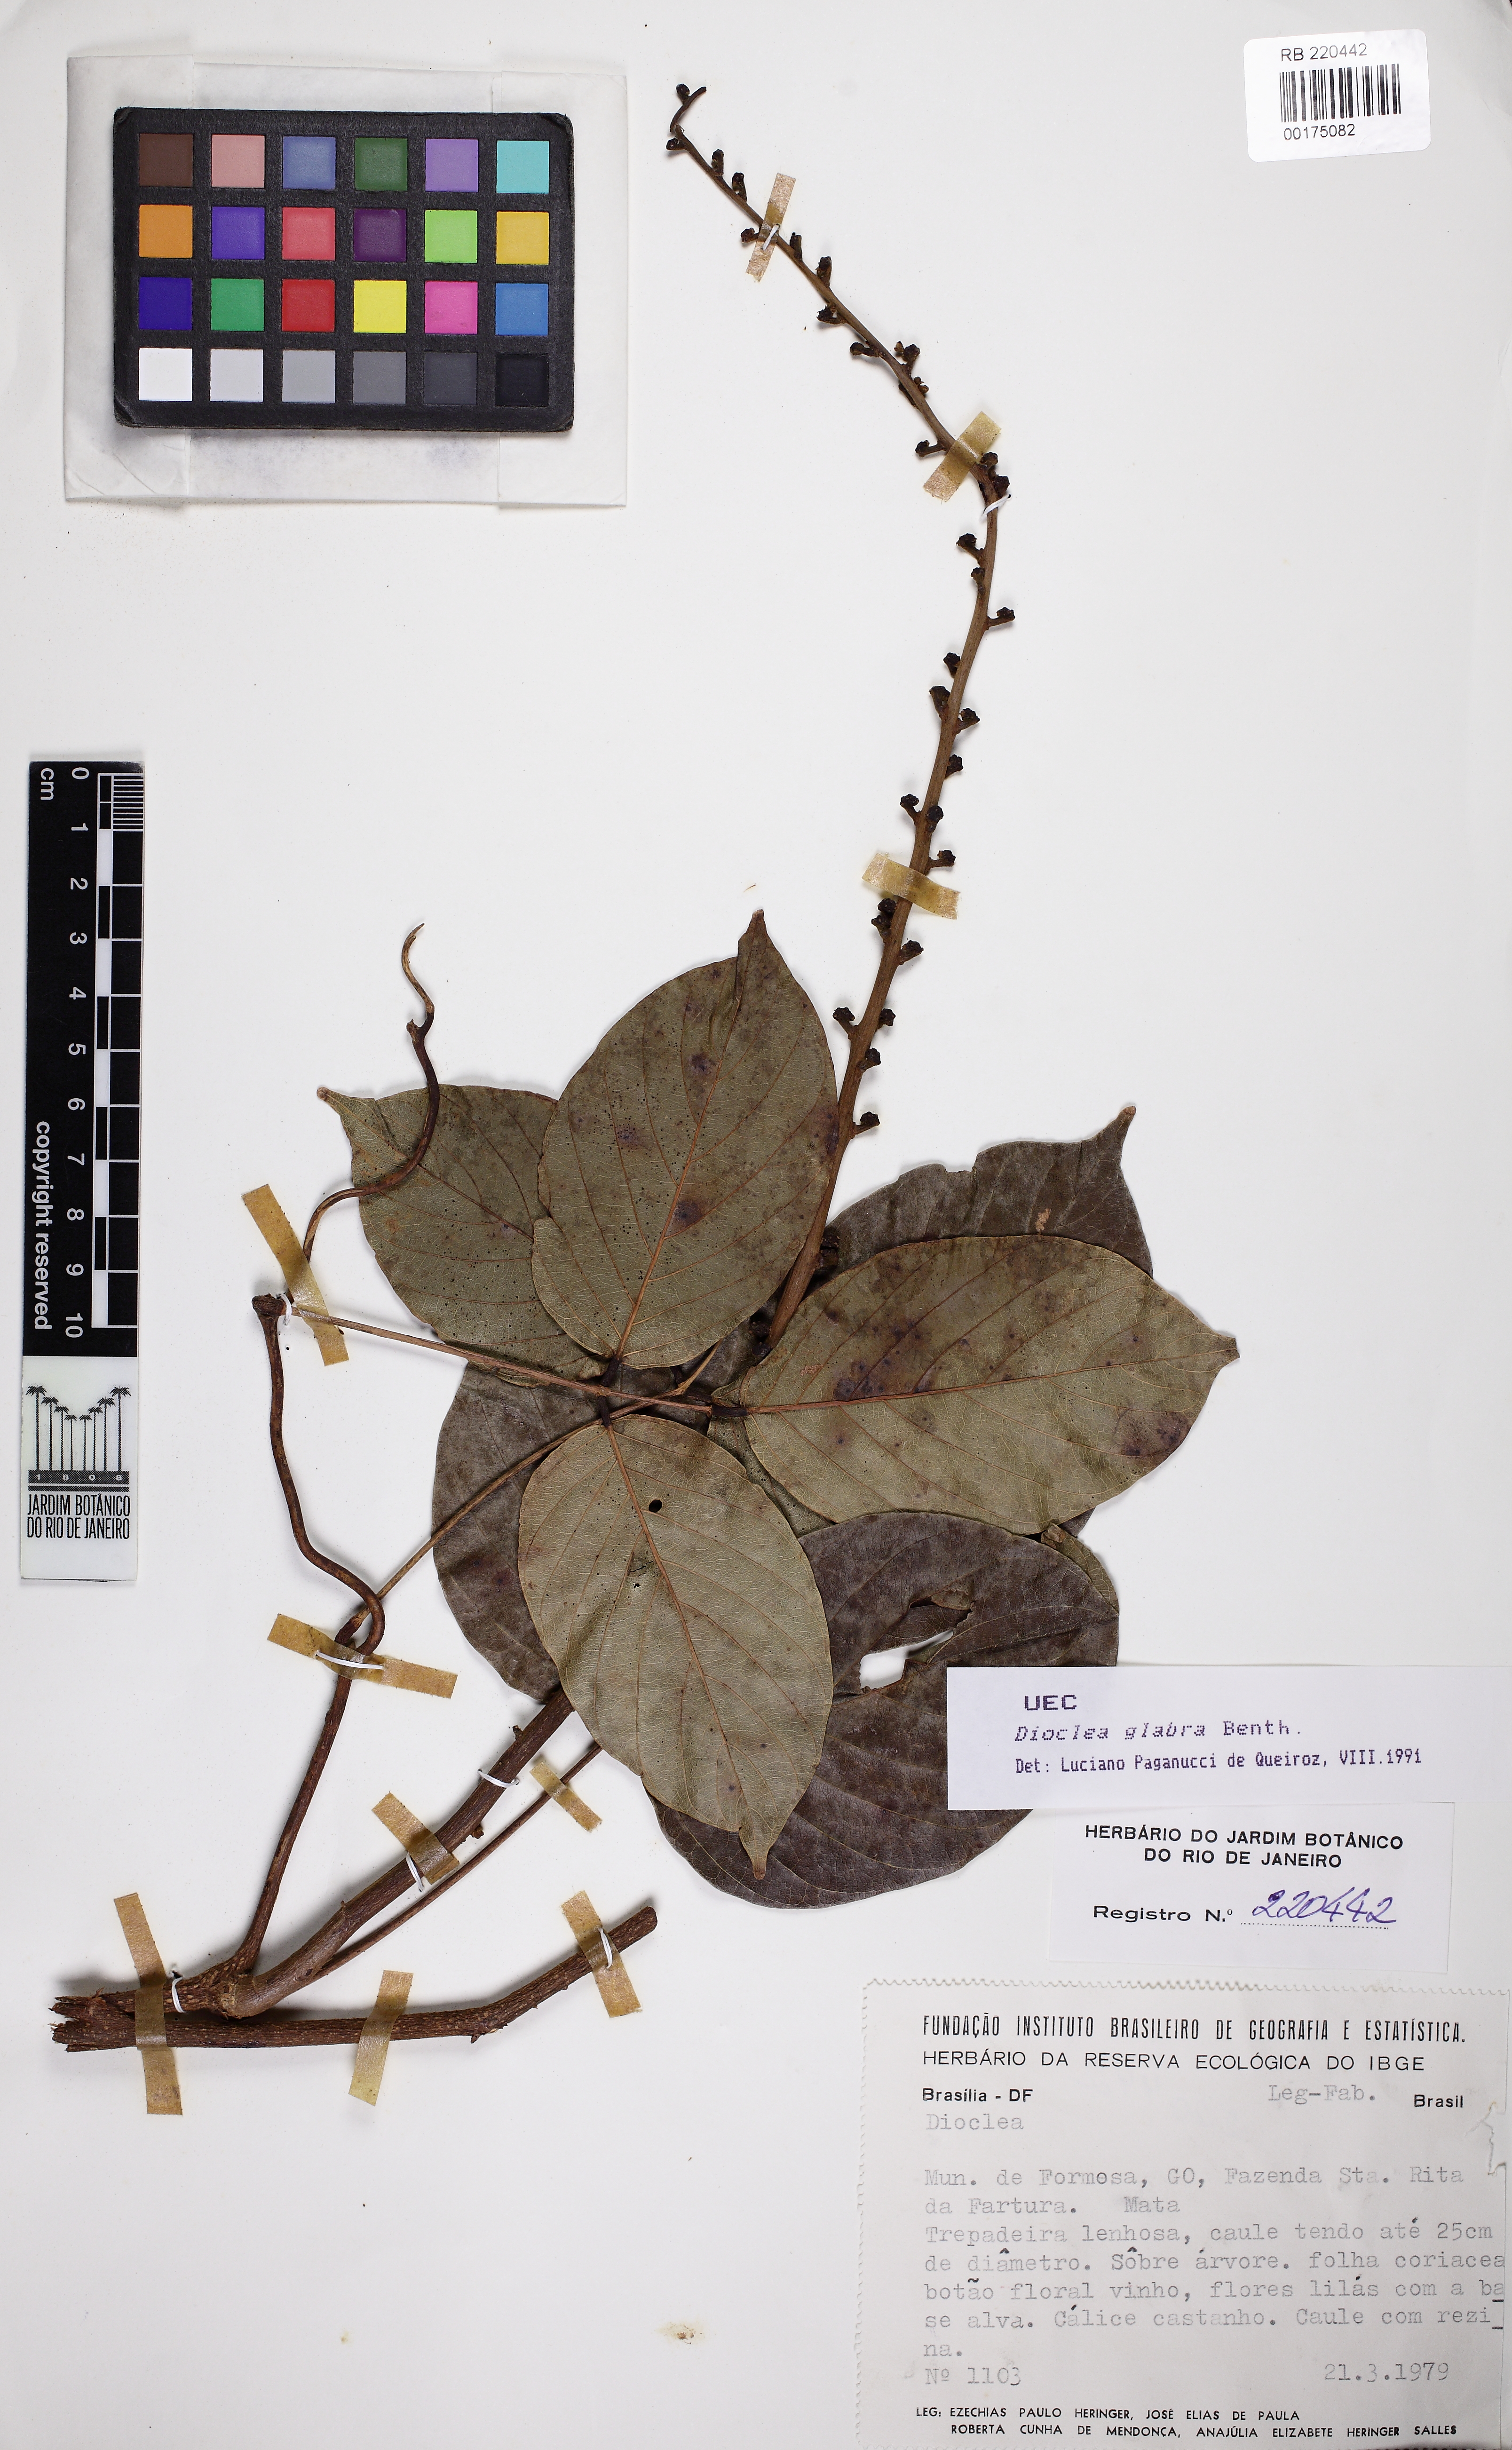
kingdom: Plantae
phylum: Tracheophyta
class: Magnoliopsida
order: Fabales
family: Fabaceae
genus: Macropsychanthus
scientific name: Macropsychanthus glaber
